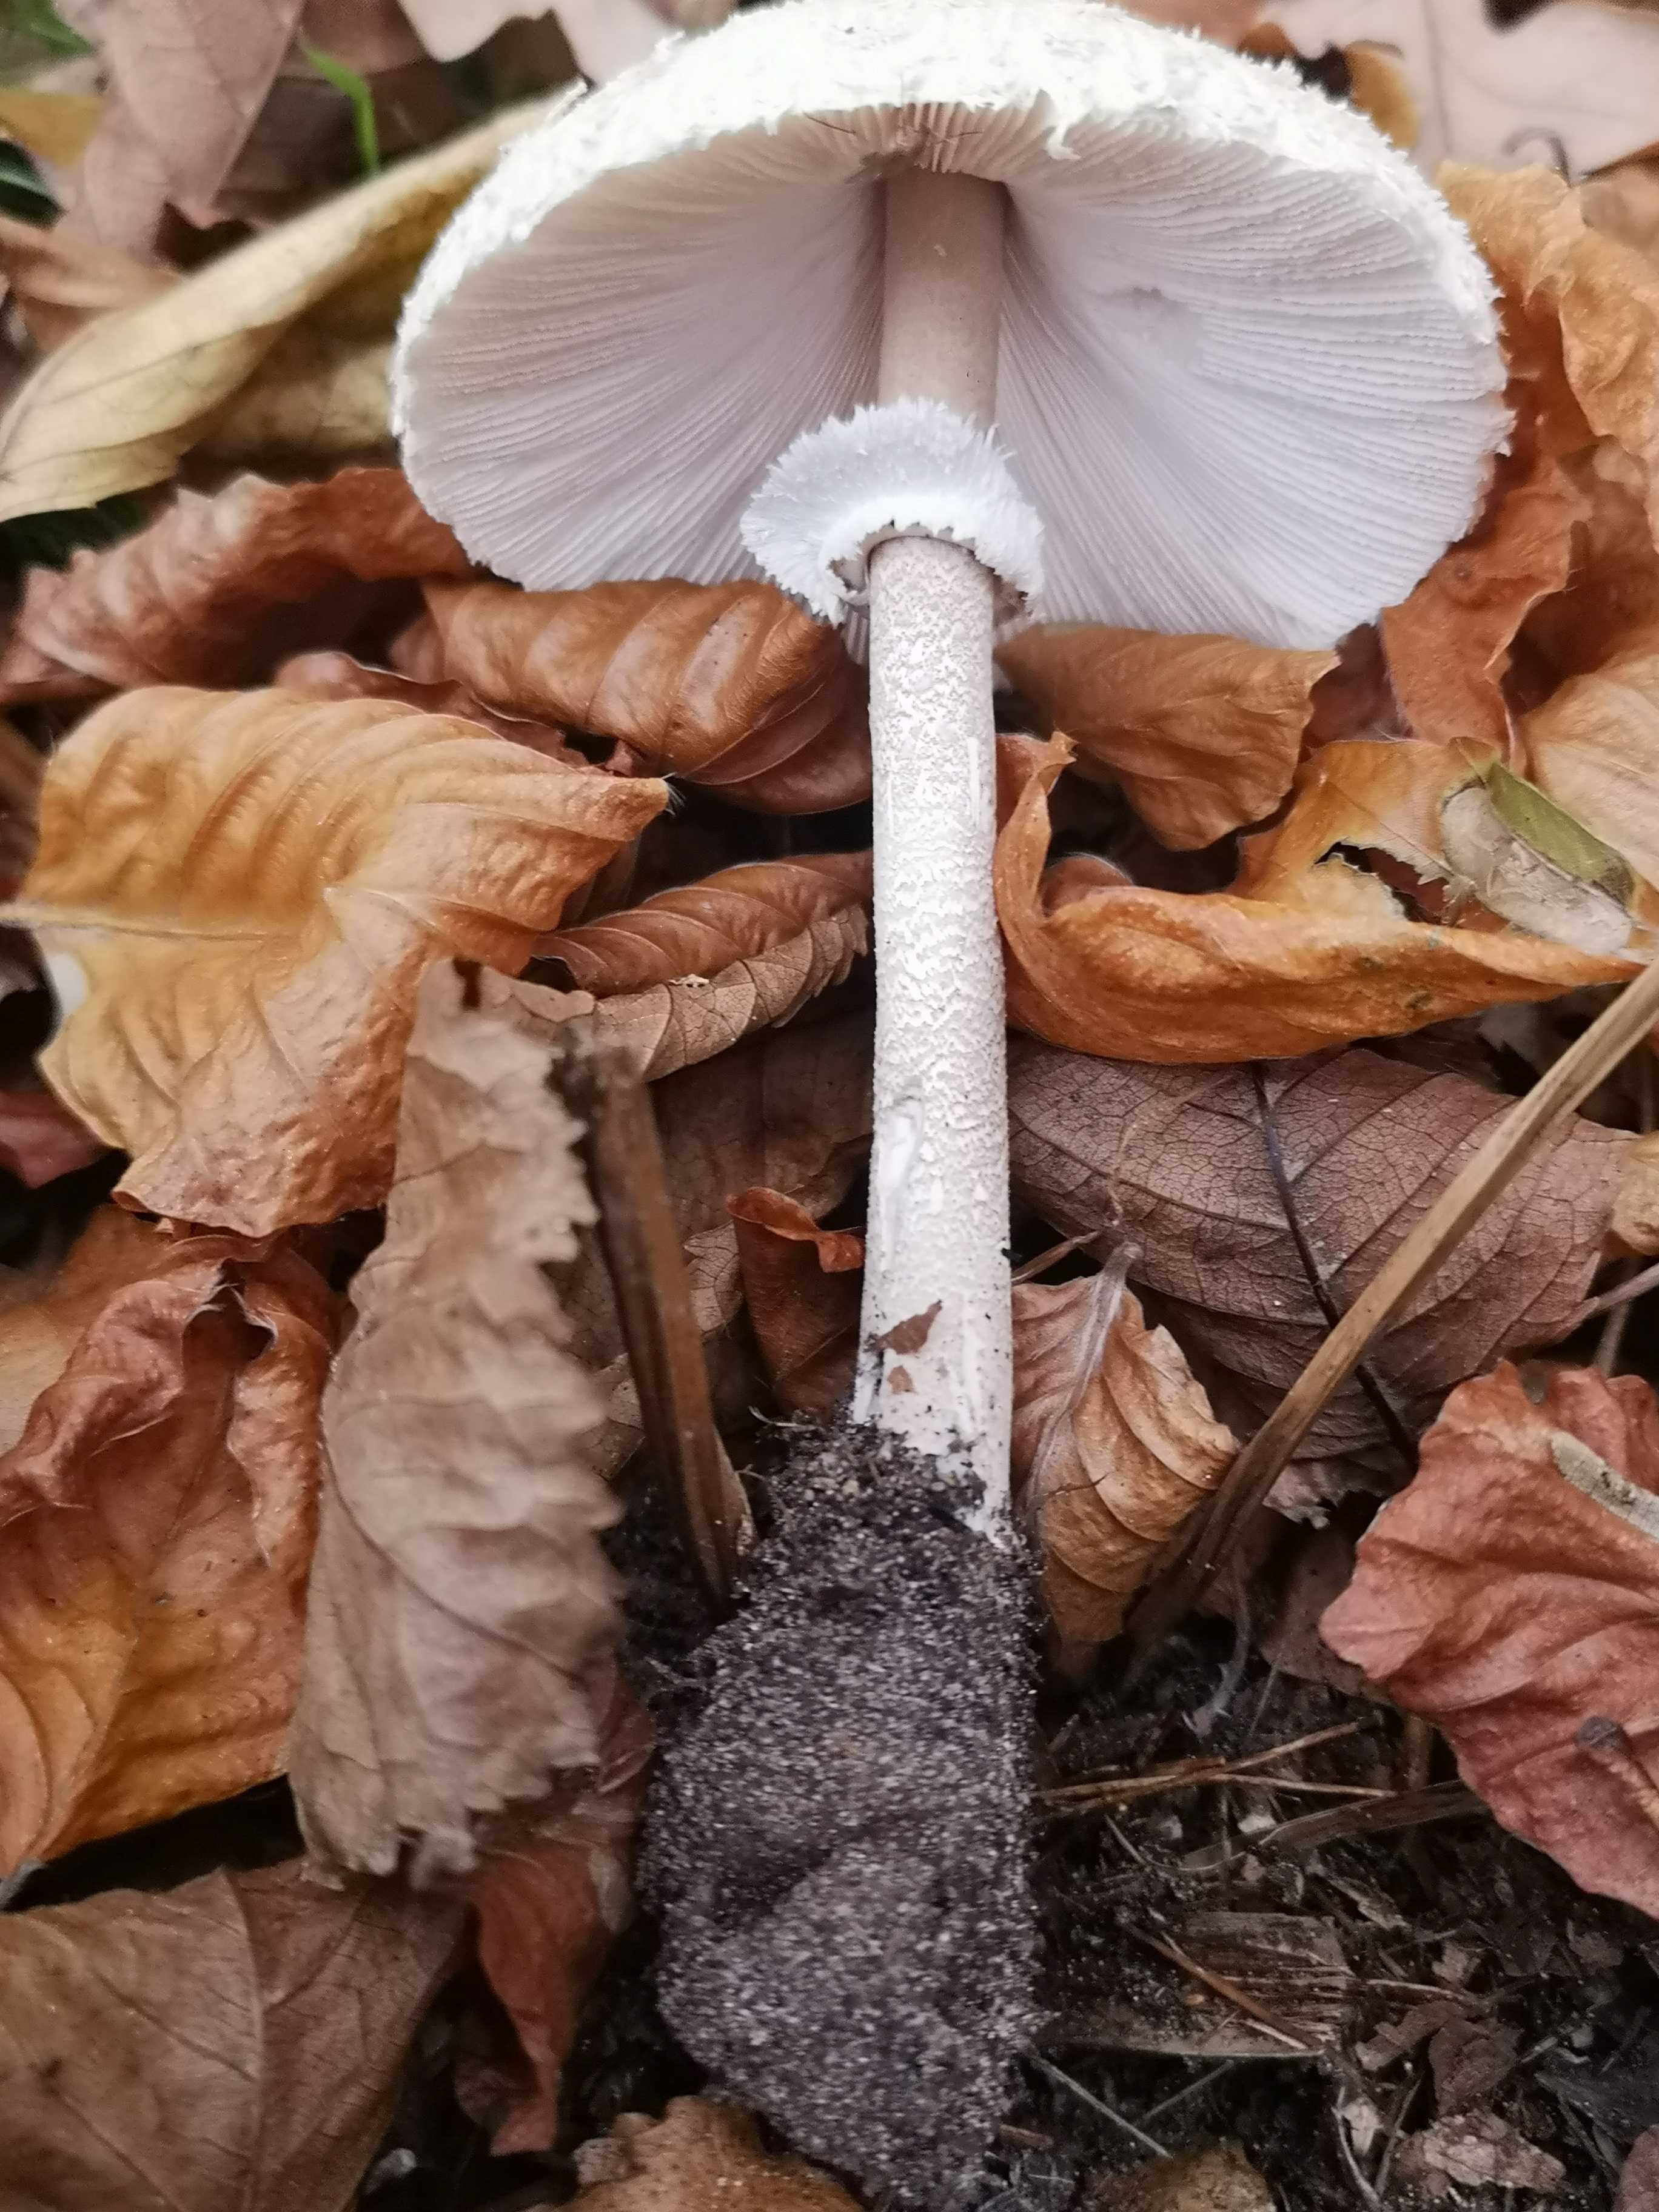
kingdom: Fungi
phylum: Basidiomycota
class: Agaricomycetes
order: Agaricales
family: Agaricaceae
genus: Macrolepiota
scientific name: Macrolepiota mastoidea
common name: puklet kæmpeparasolhat
